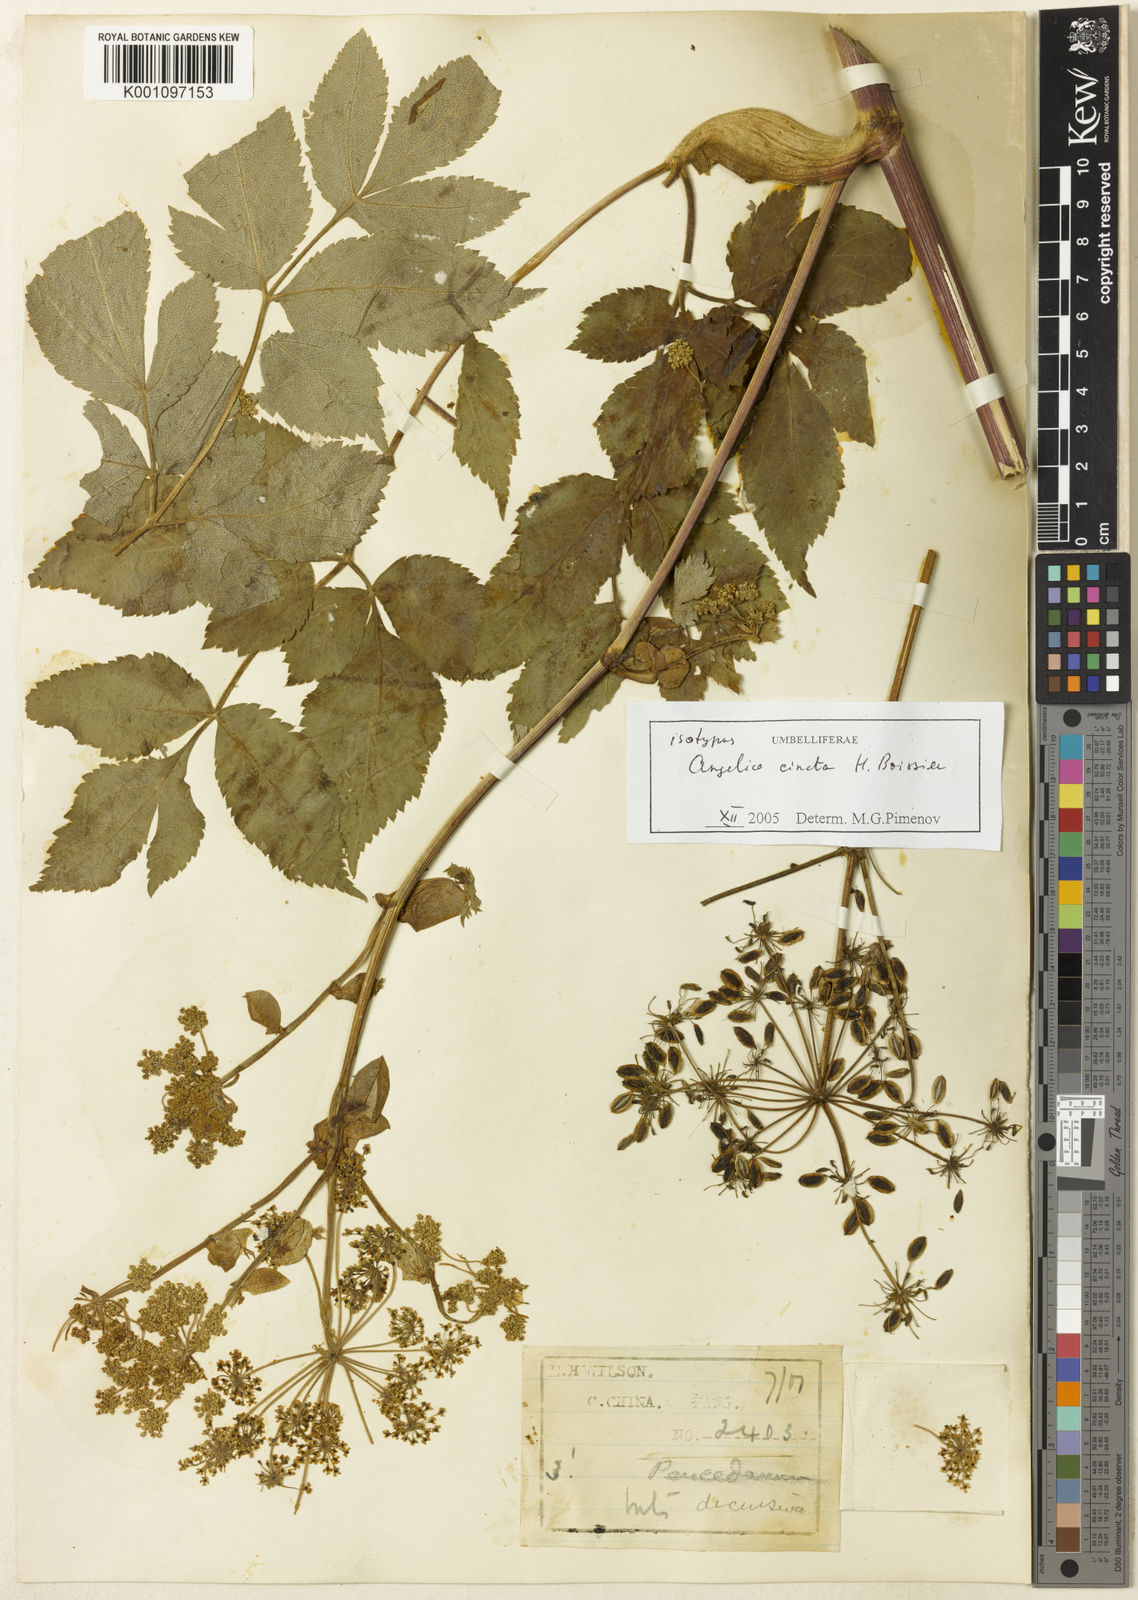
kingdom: Plantae
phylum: Tracheophyta
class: Magnoliopsida
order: Apiales
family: Apiaceae
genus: Angelica
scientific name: Angelica cincta
